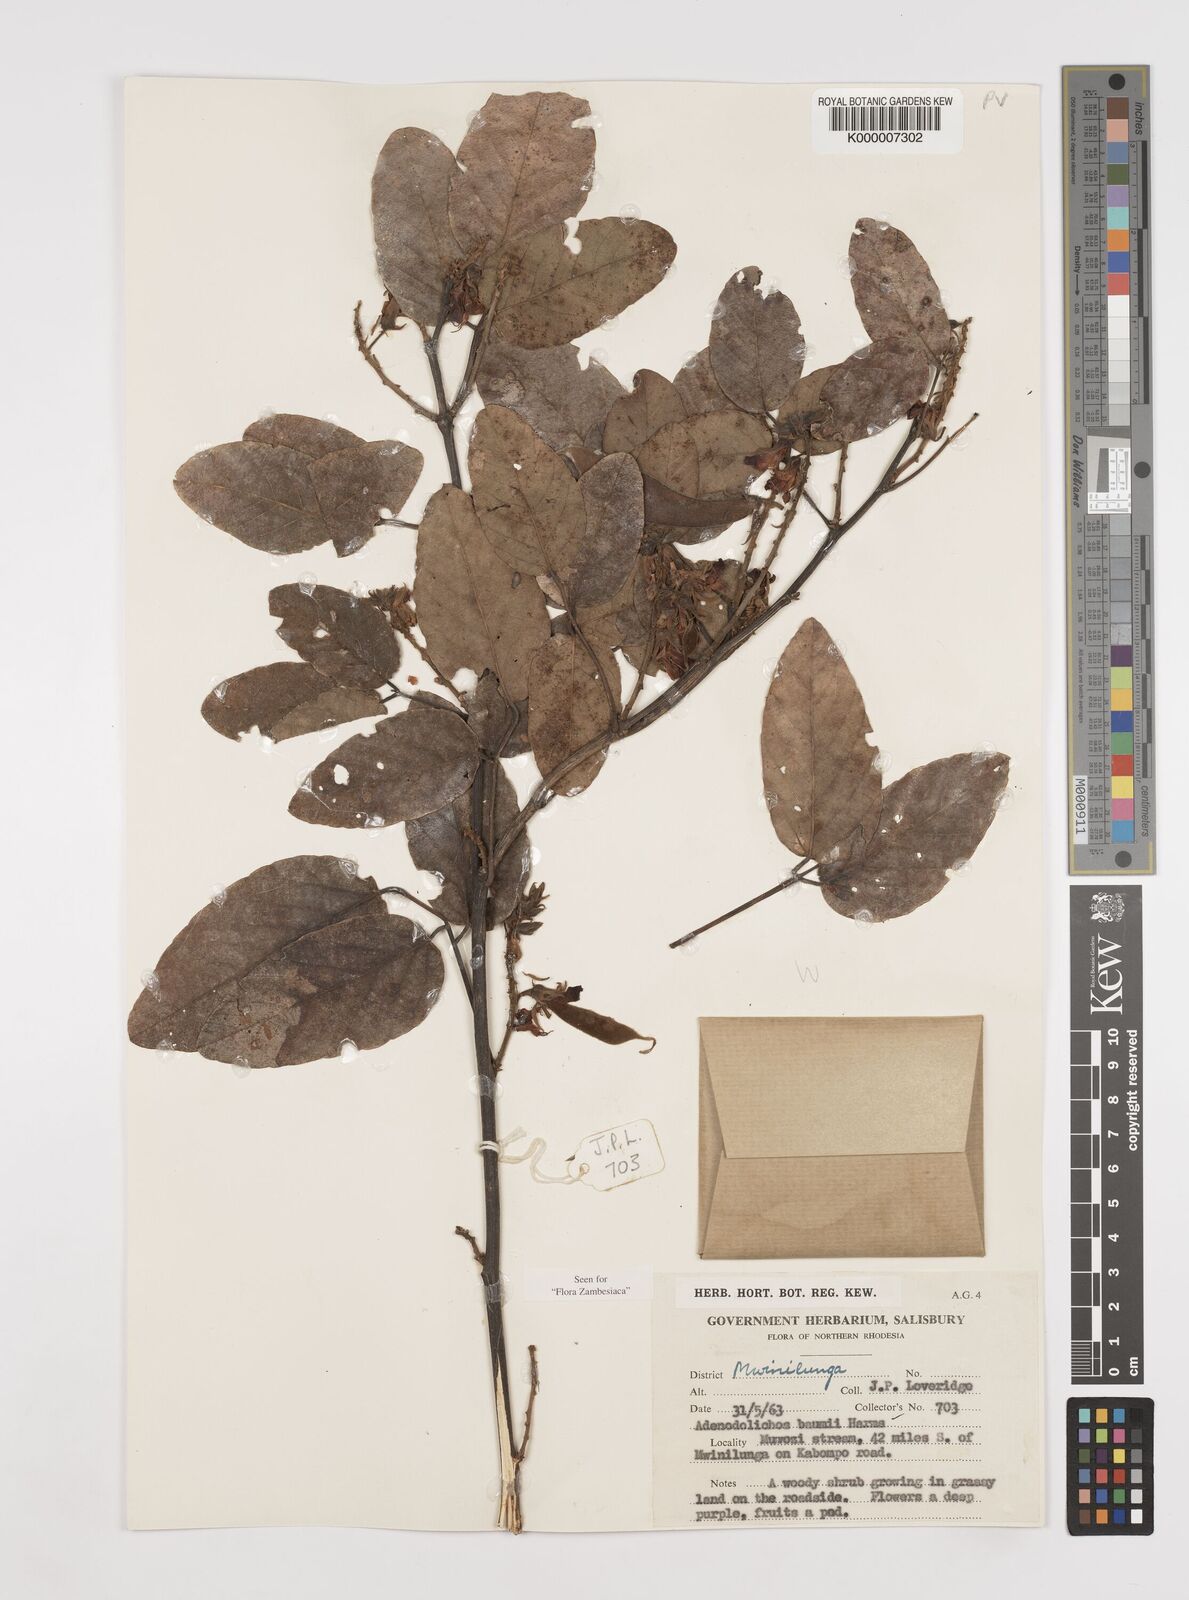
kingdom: Plantae
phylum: Tracheophyta
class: Magnoliopsida
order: Fabales
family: Fabaceae
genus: Adenodolichos
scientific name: Adenodolichos baumii
